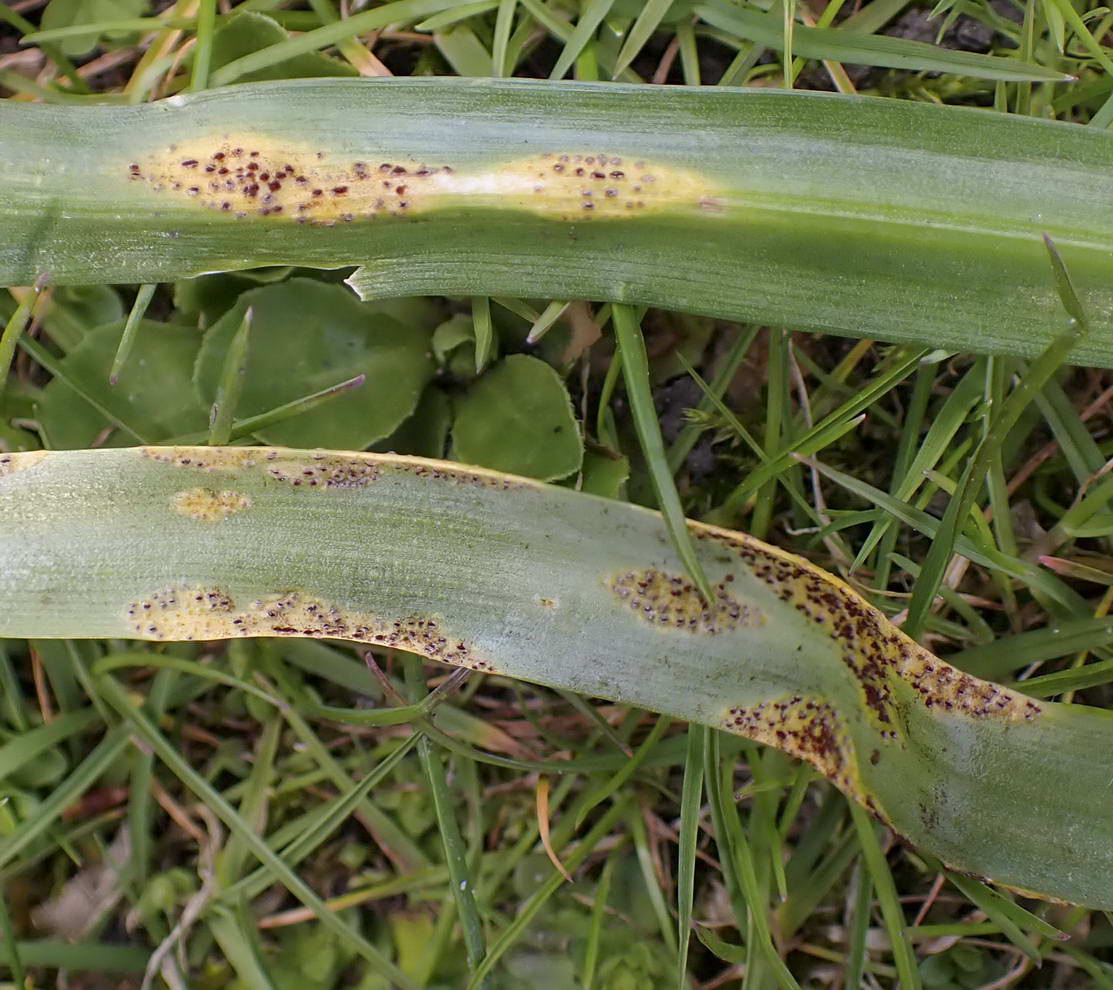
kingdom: Fungi
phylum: Basidiomycota
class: Pucciniomycetes
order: Pucciniales
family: Pucciniaceae
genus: Puccinia
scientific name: Puccinia scillae
